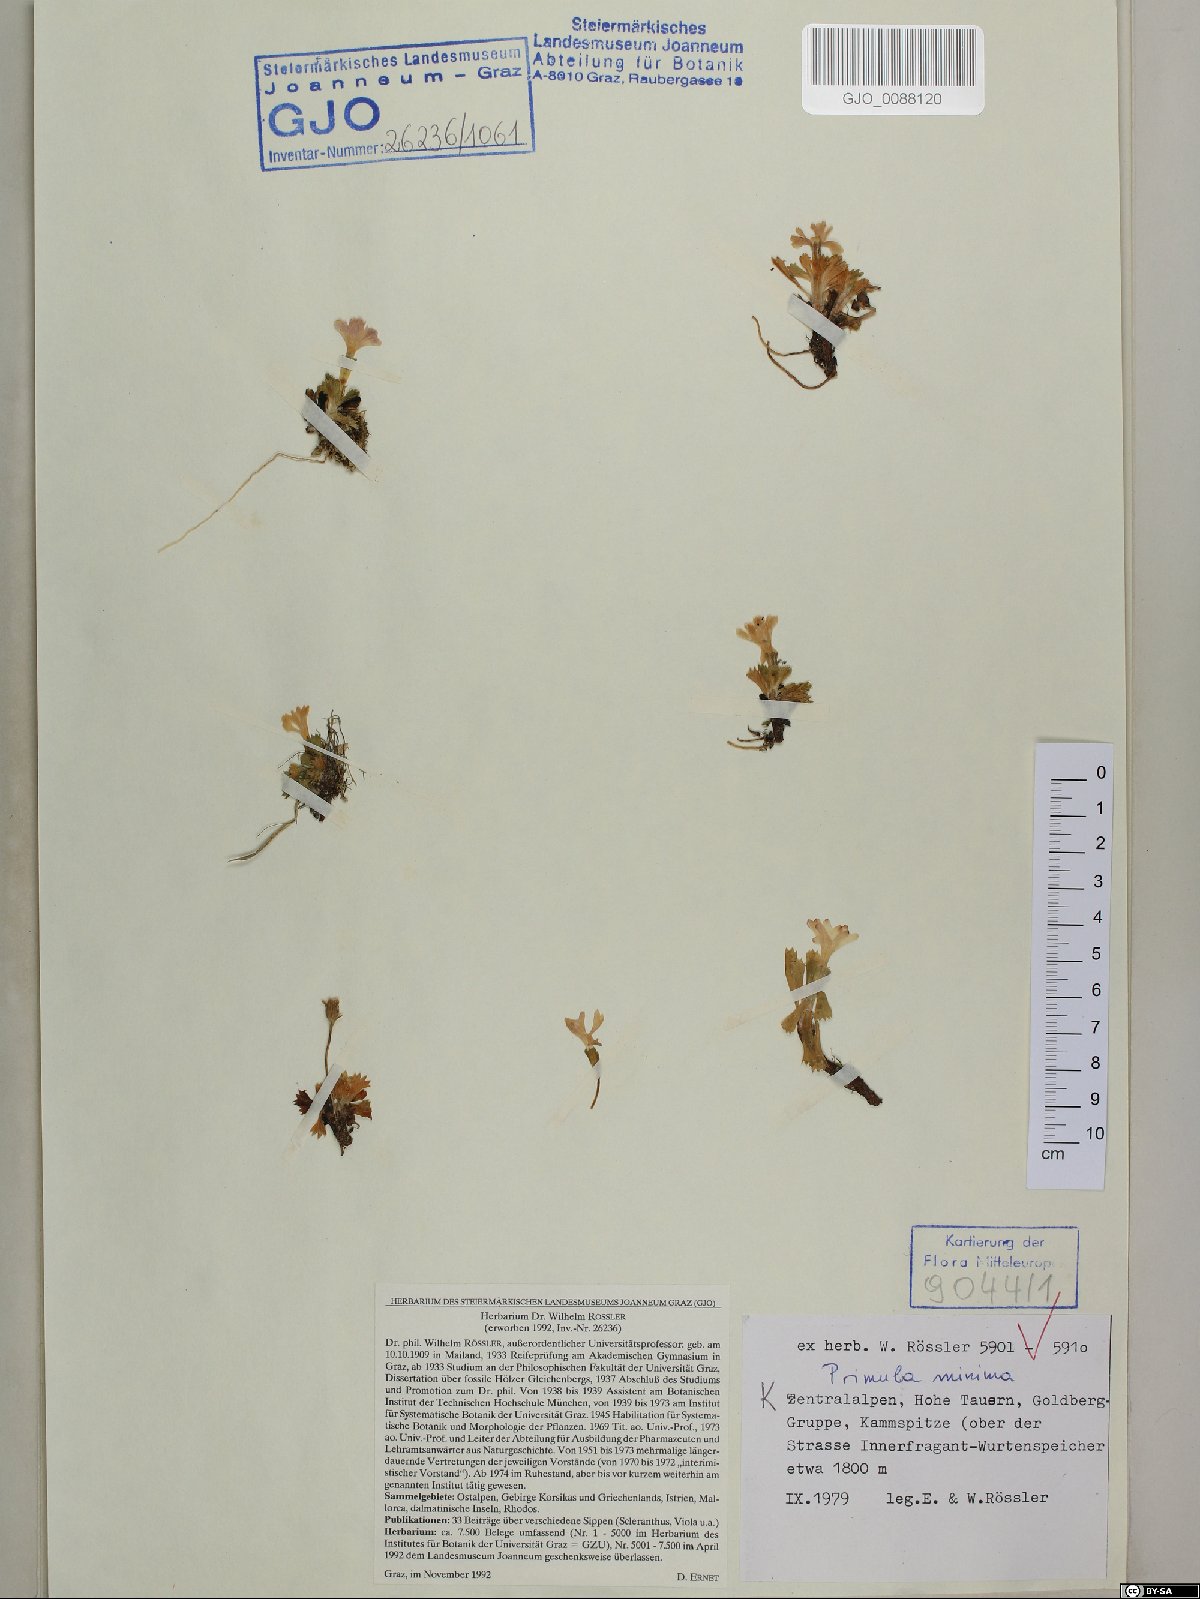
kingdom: Plantae
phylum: Tracheophyta
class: Magnoliopsida
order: Ericales
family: Primulaceae
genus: Primula
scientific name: Primula minima
